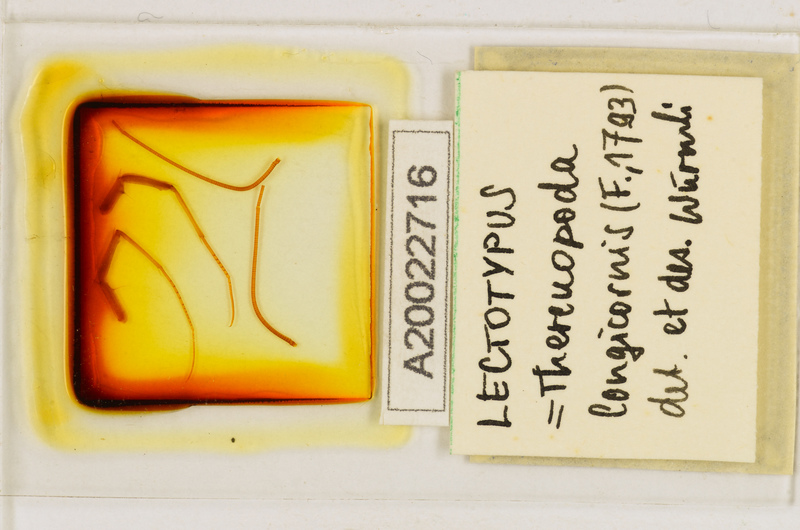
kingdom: Animalia
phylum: Arthropoda
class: Chilopoda
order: Scutigeromorpha
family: Scutigeridae
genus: Thereuopoda
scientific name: Thereuopoda longicornis
